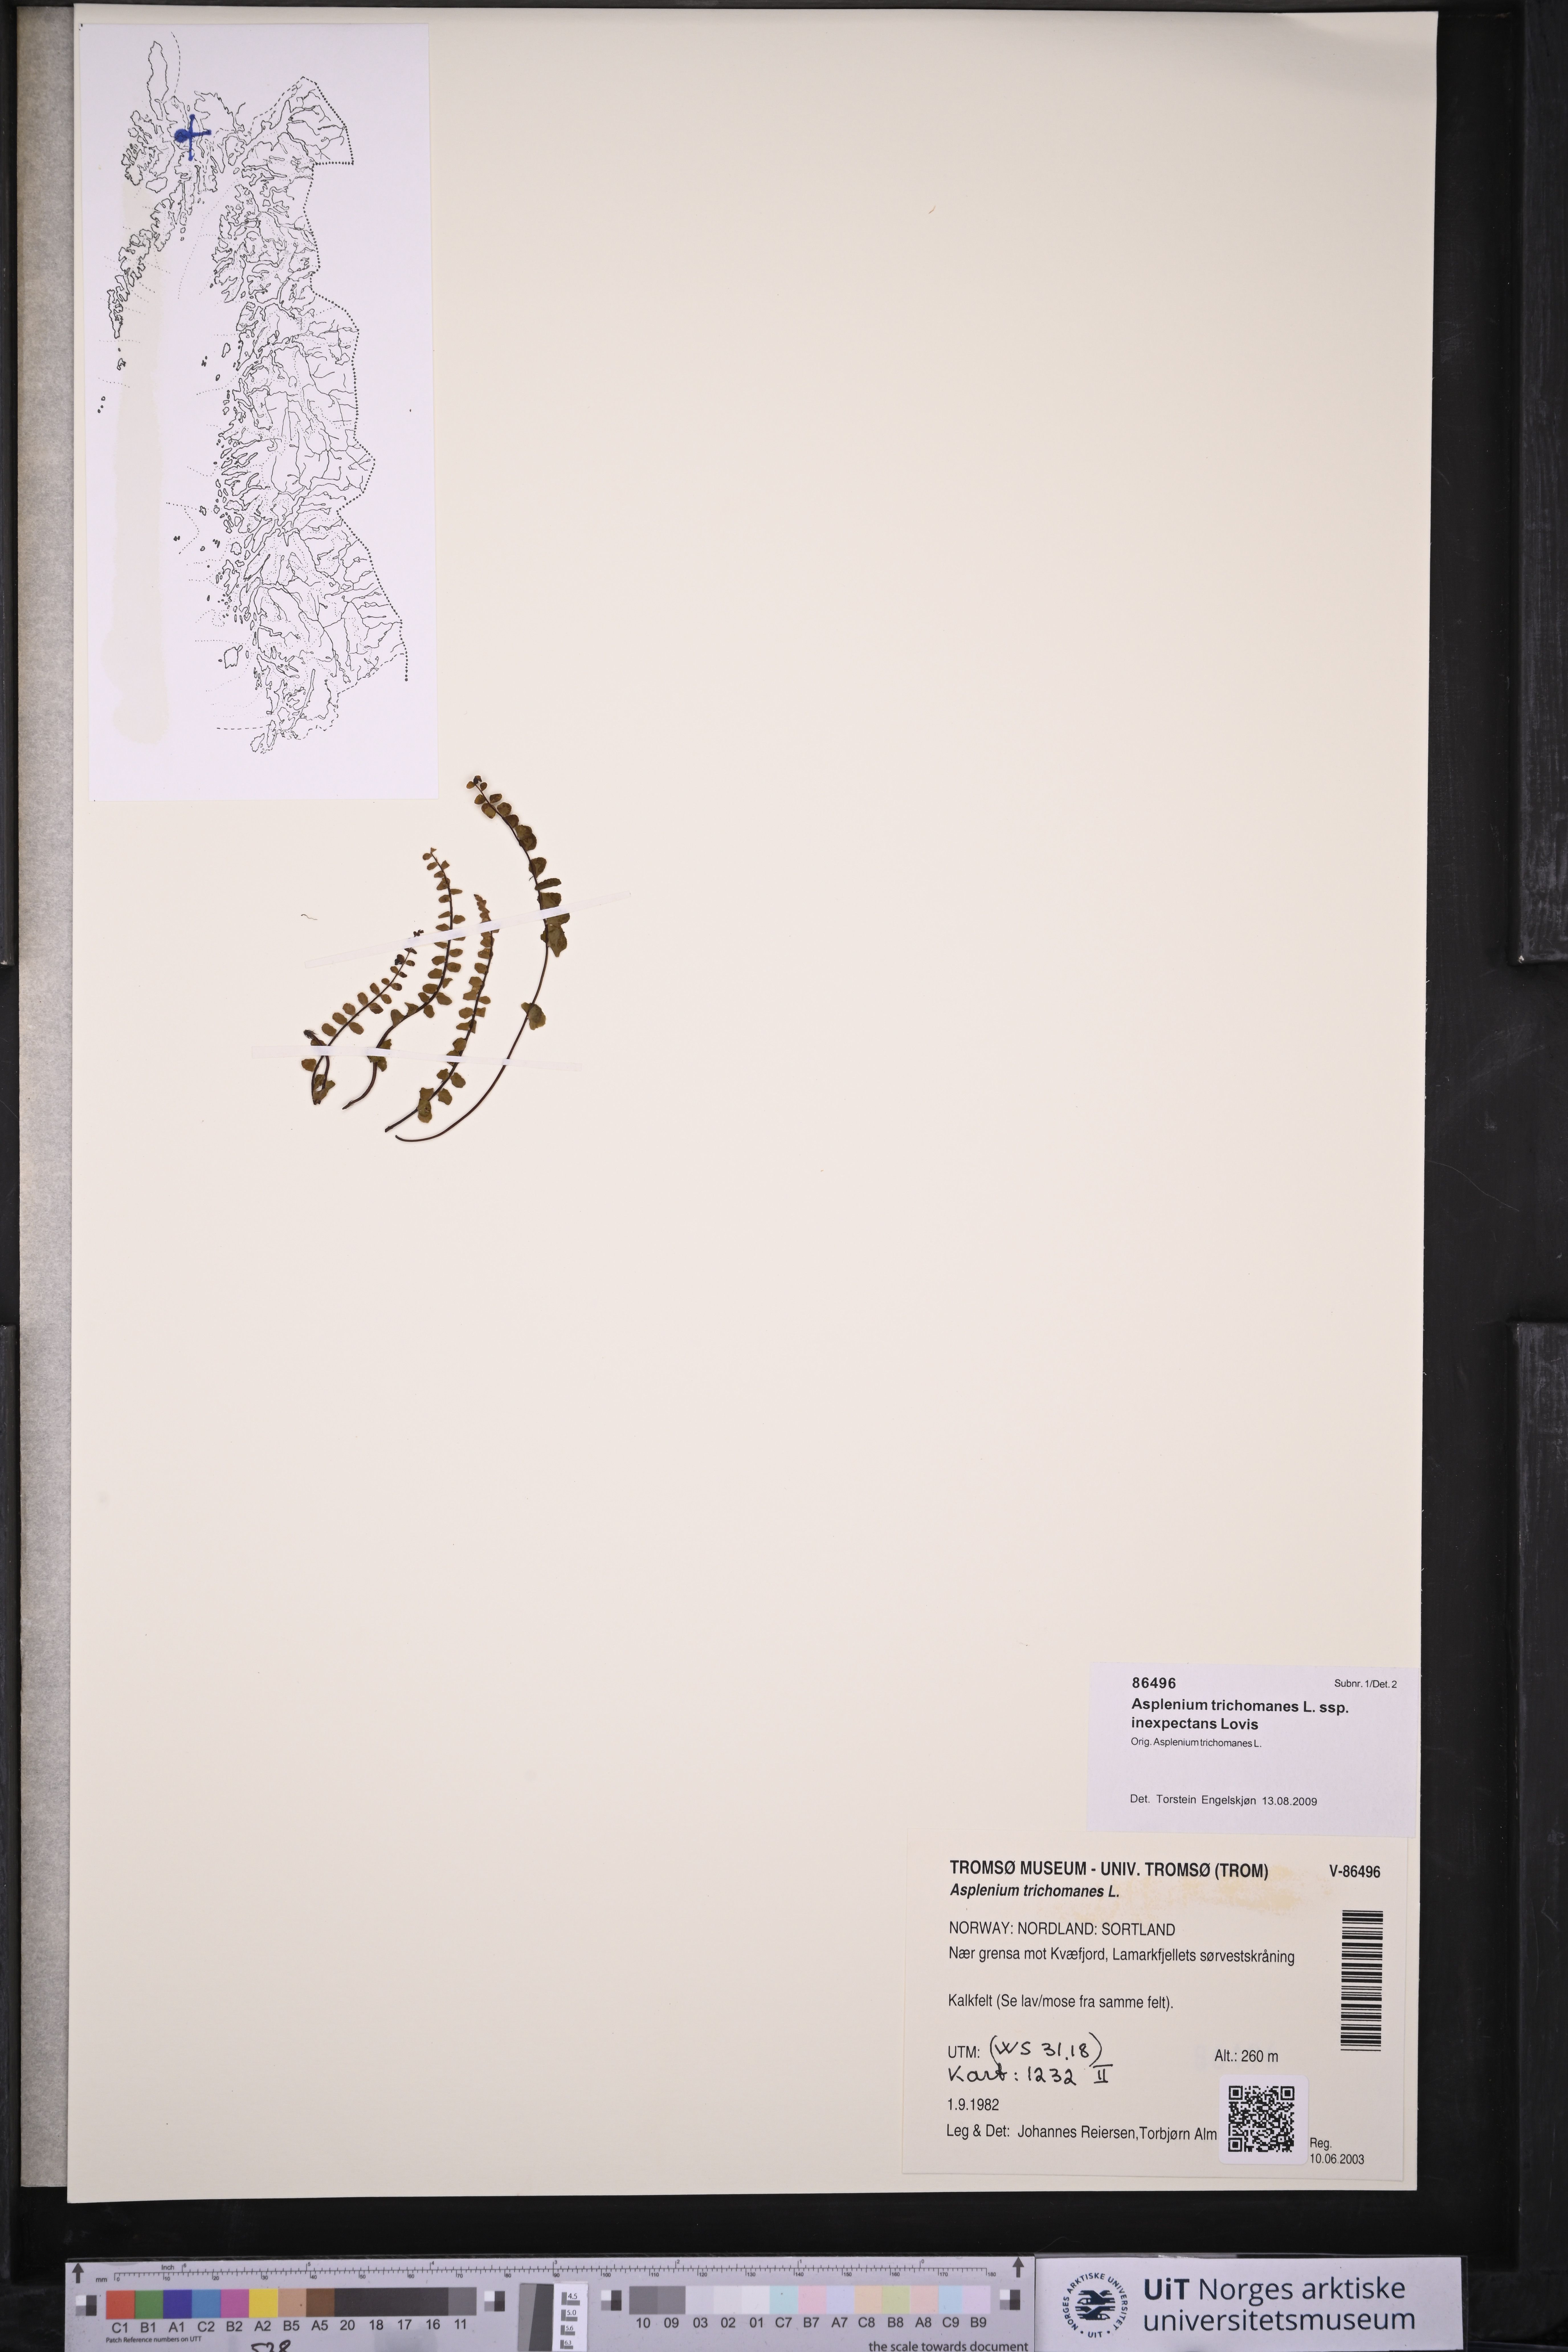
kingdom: Plantae
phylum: Tracheophyta
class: Polypodiopsida
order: Polypodiales
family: Aspleniaceae
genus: Asplenium
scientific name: Asplenium inexpectans
